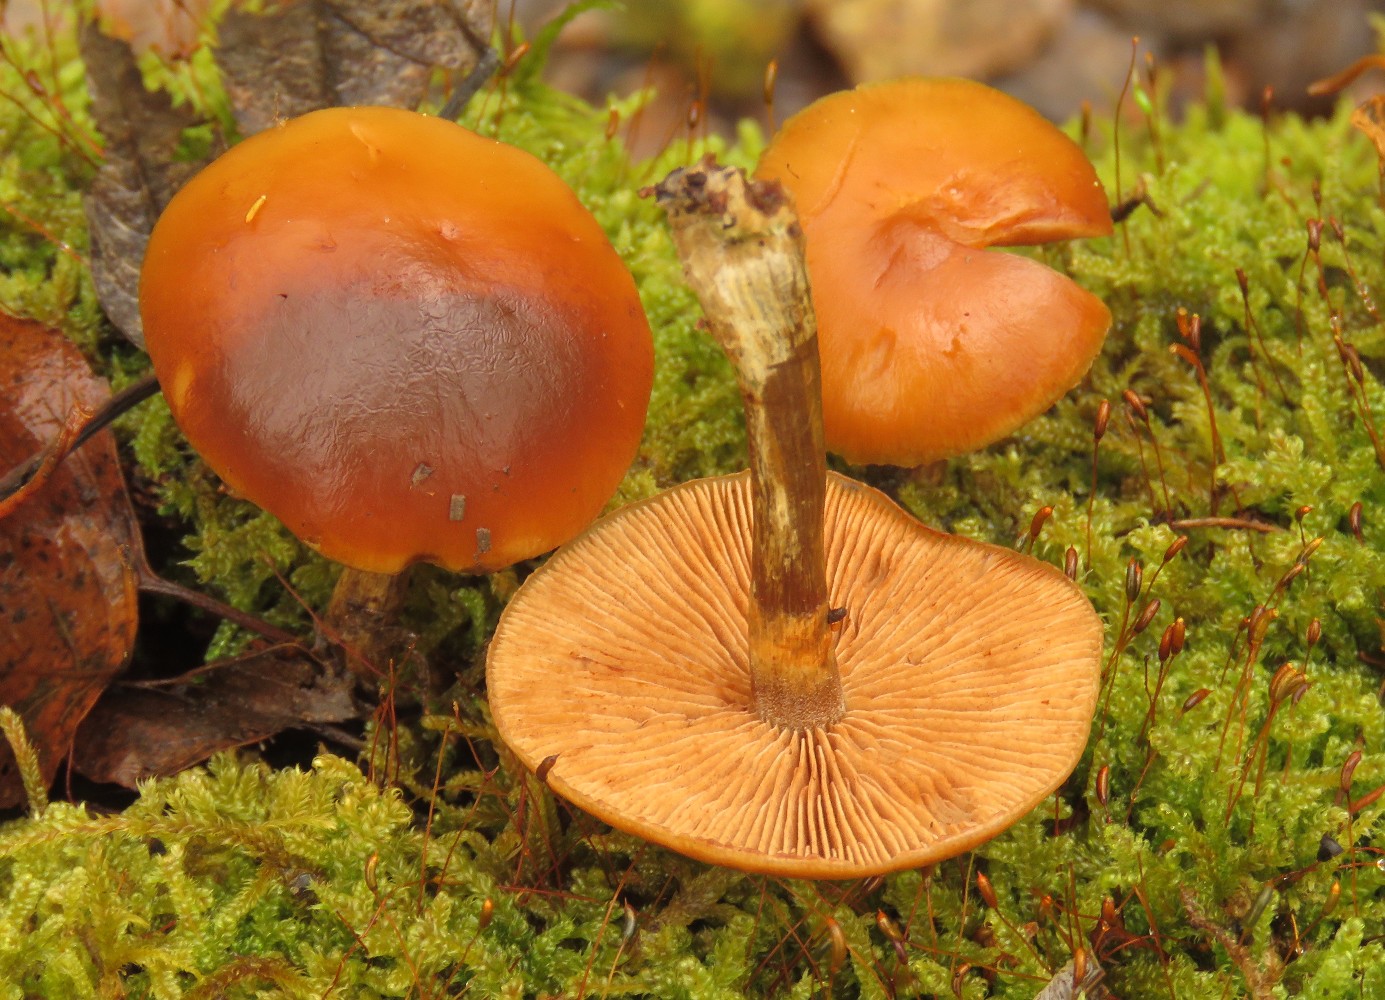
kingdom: Fungi
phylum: Basidiomycota
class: Agaricomycetes
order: Agaricales
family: Hymenogastraceae
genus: Galerina
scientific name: Galerina marginata
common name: randbæltet hjelmhat
